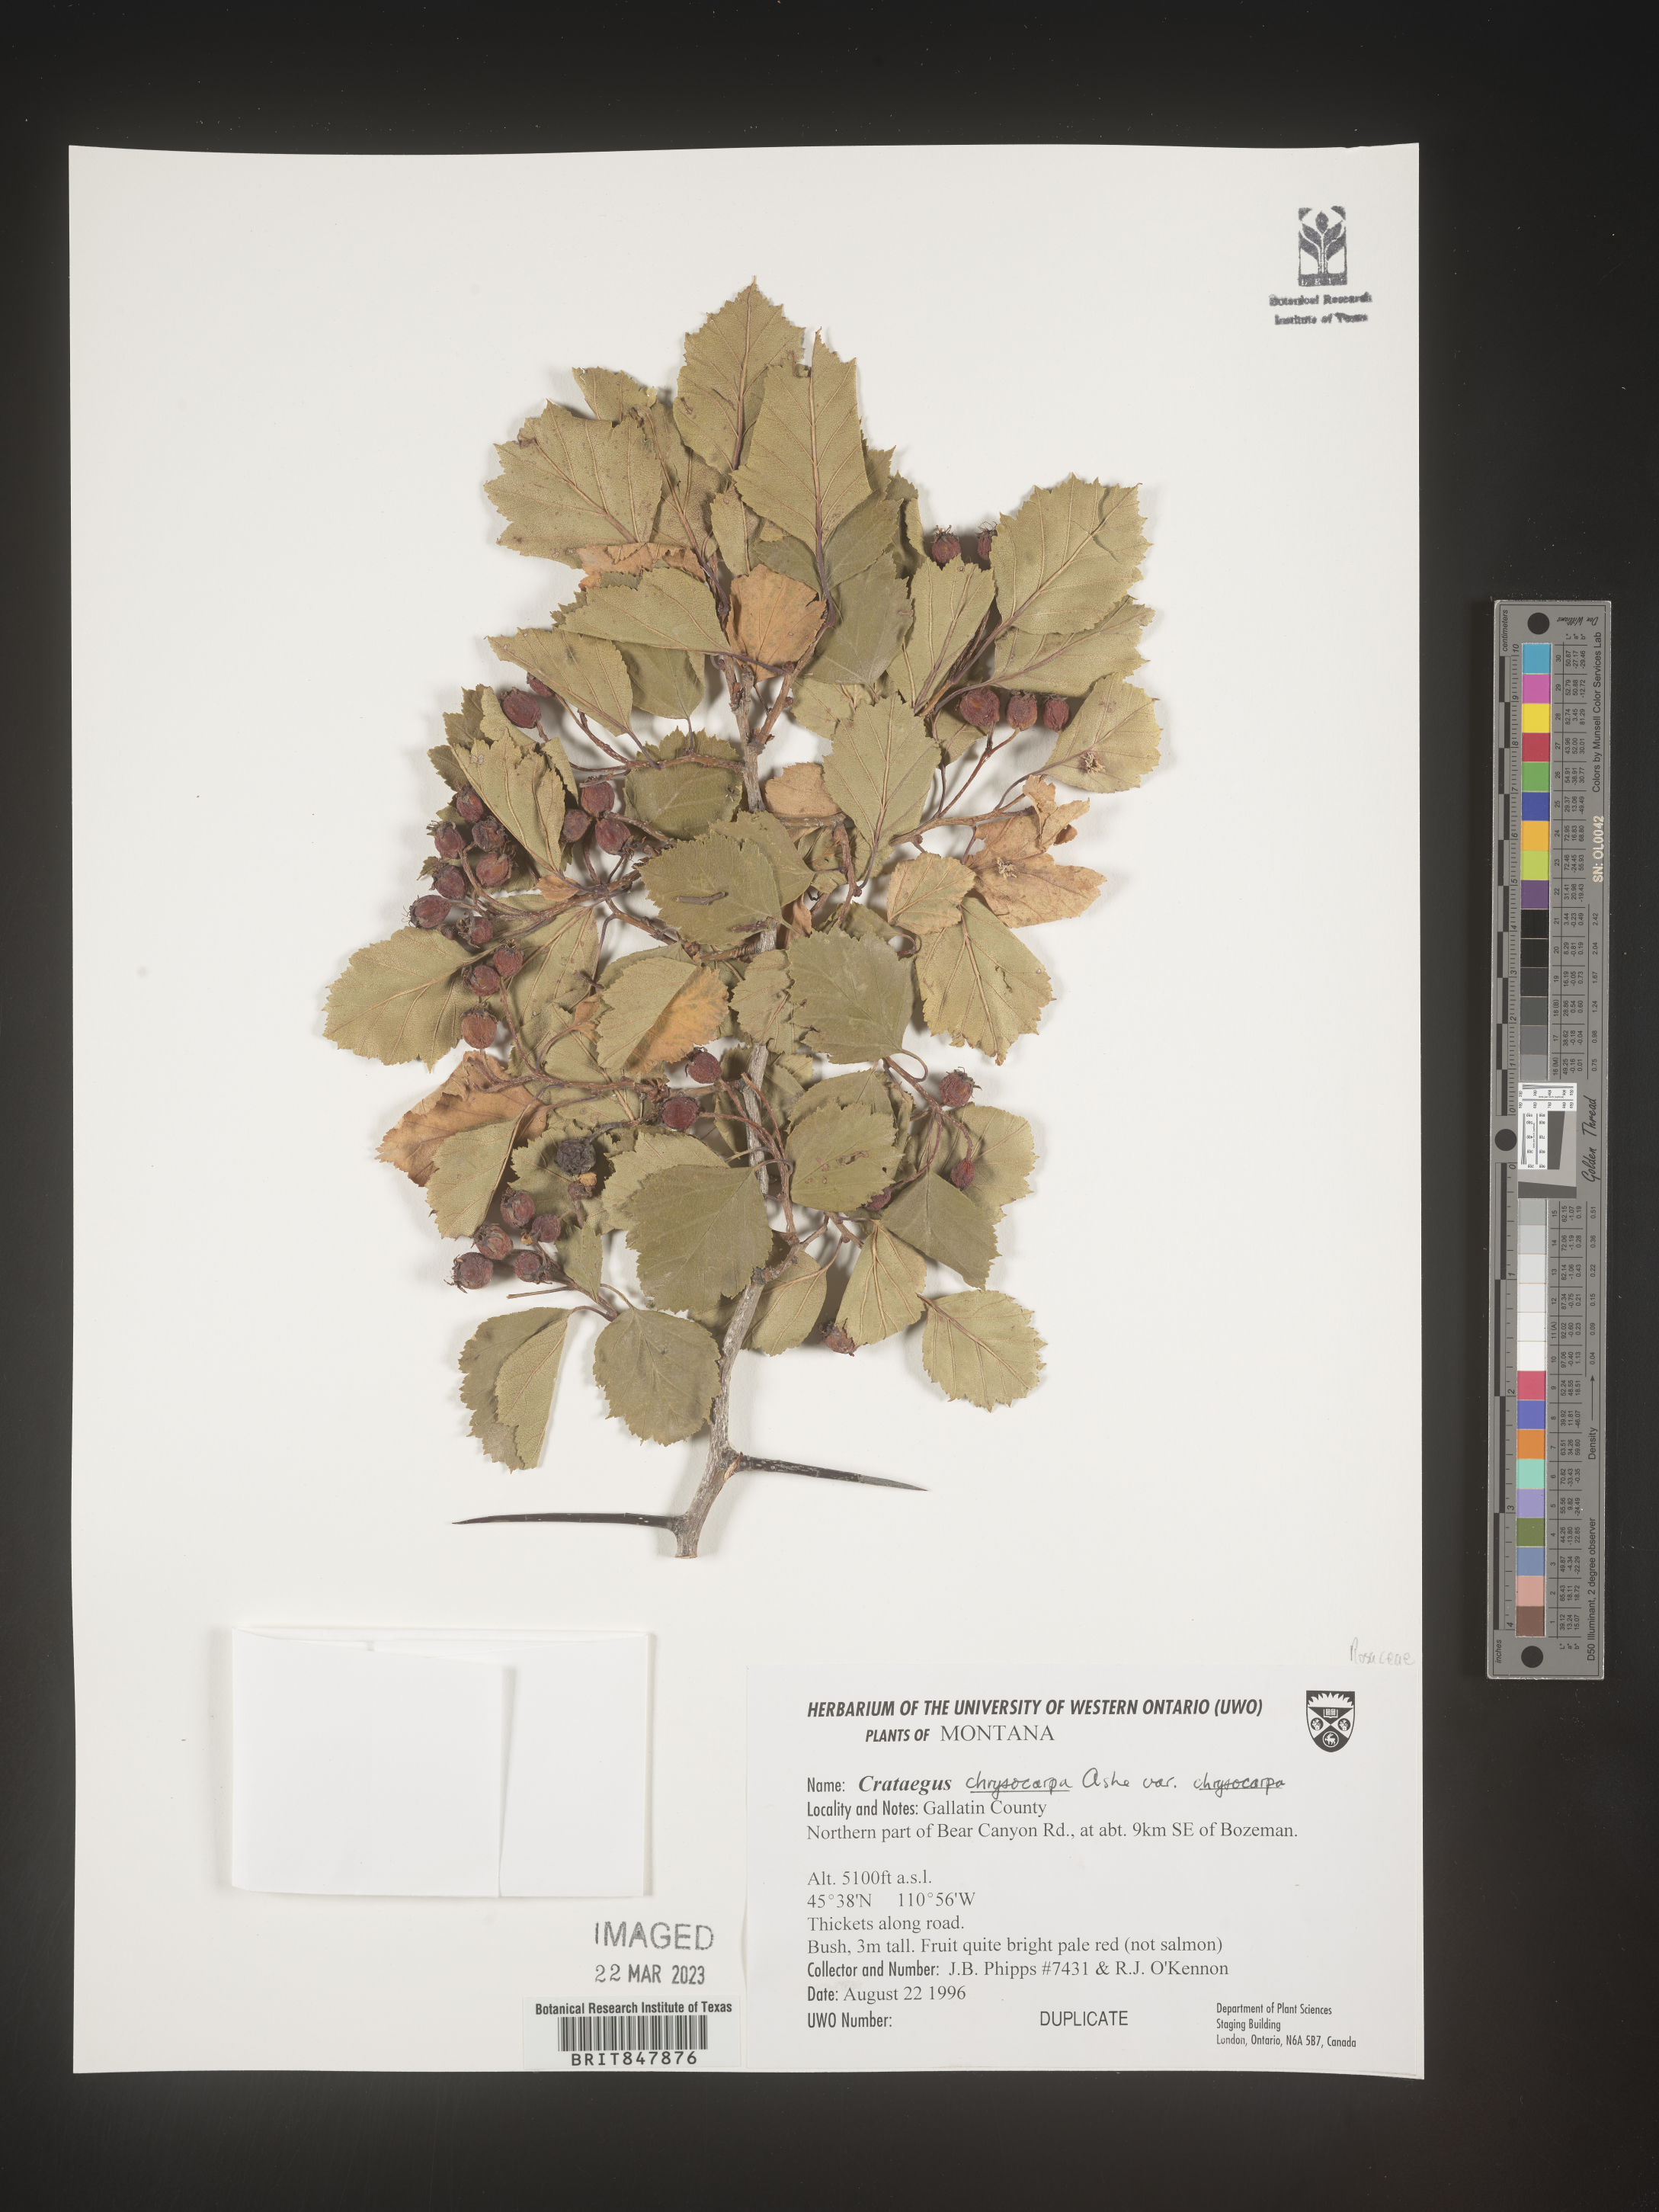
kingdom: Plantae
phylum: Tracheophyta
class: Magnoliopsida
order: Rosales
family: Rosaceae
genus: Crataegus
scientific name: Crataegus chrysocarpa
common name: Fire-berry hawthorn
